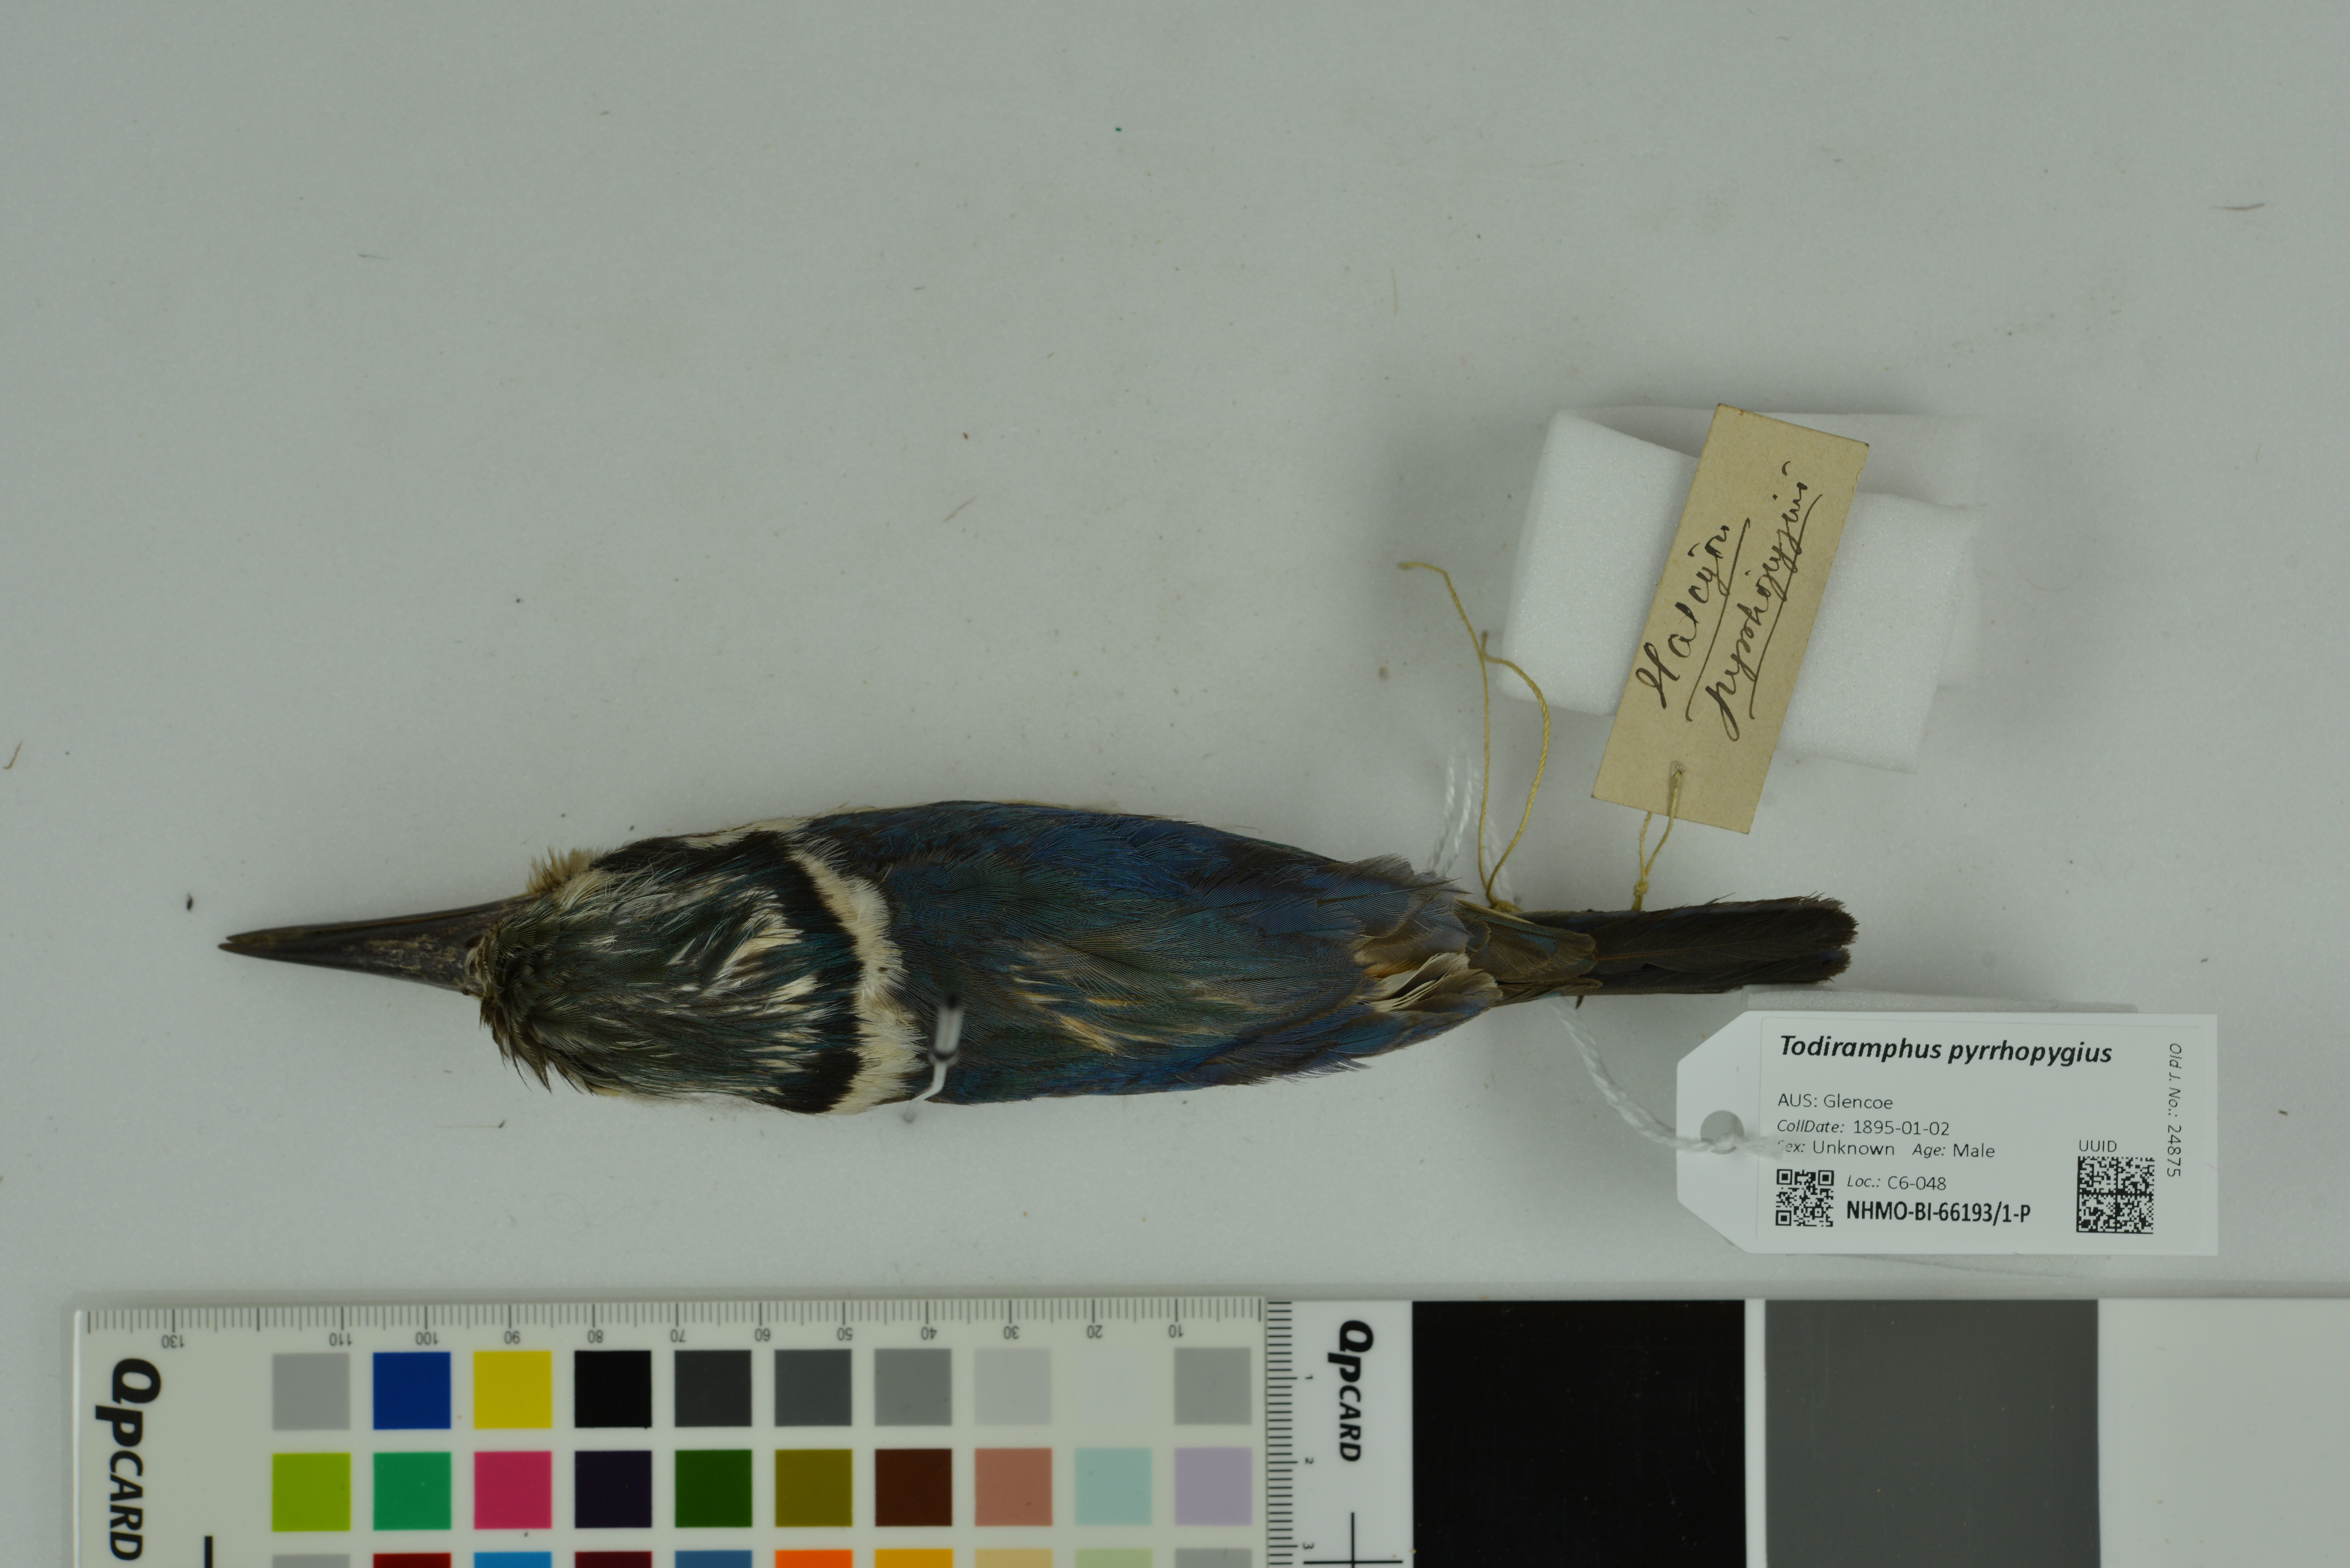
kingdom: Animalia
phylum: Chordata
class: Aves
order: Coraciiformes
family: Alcedinidae
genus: Todiramphus
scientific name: Todiramphus pyrrhopygius
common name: Red-backed kingfisher
